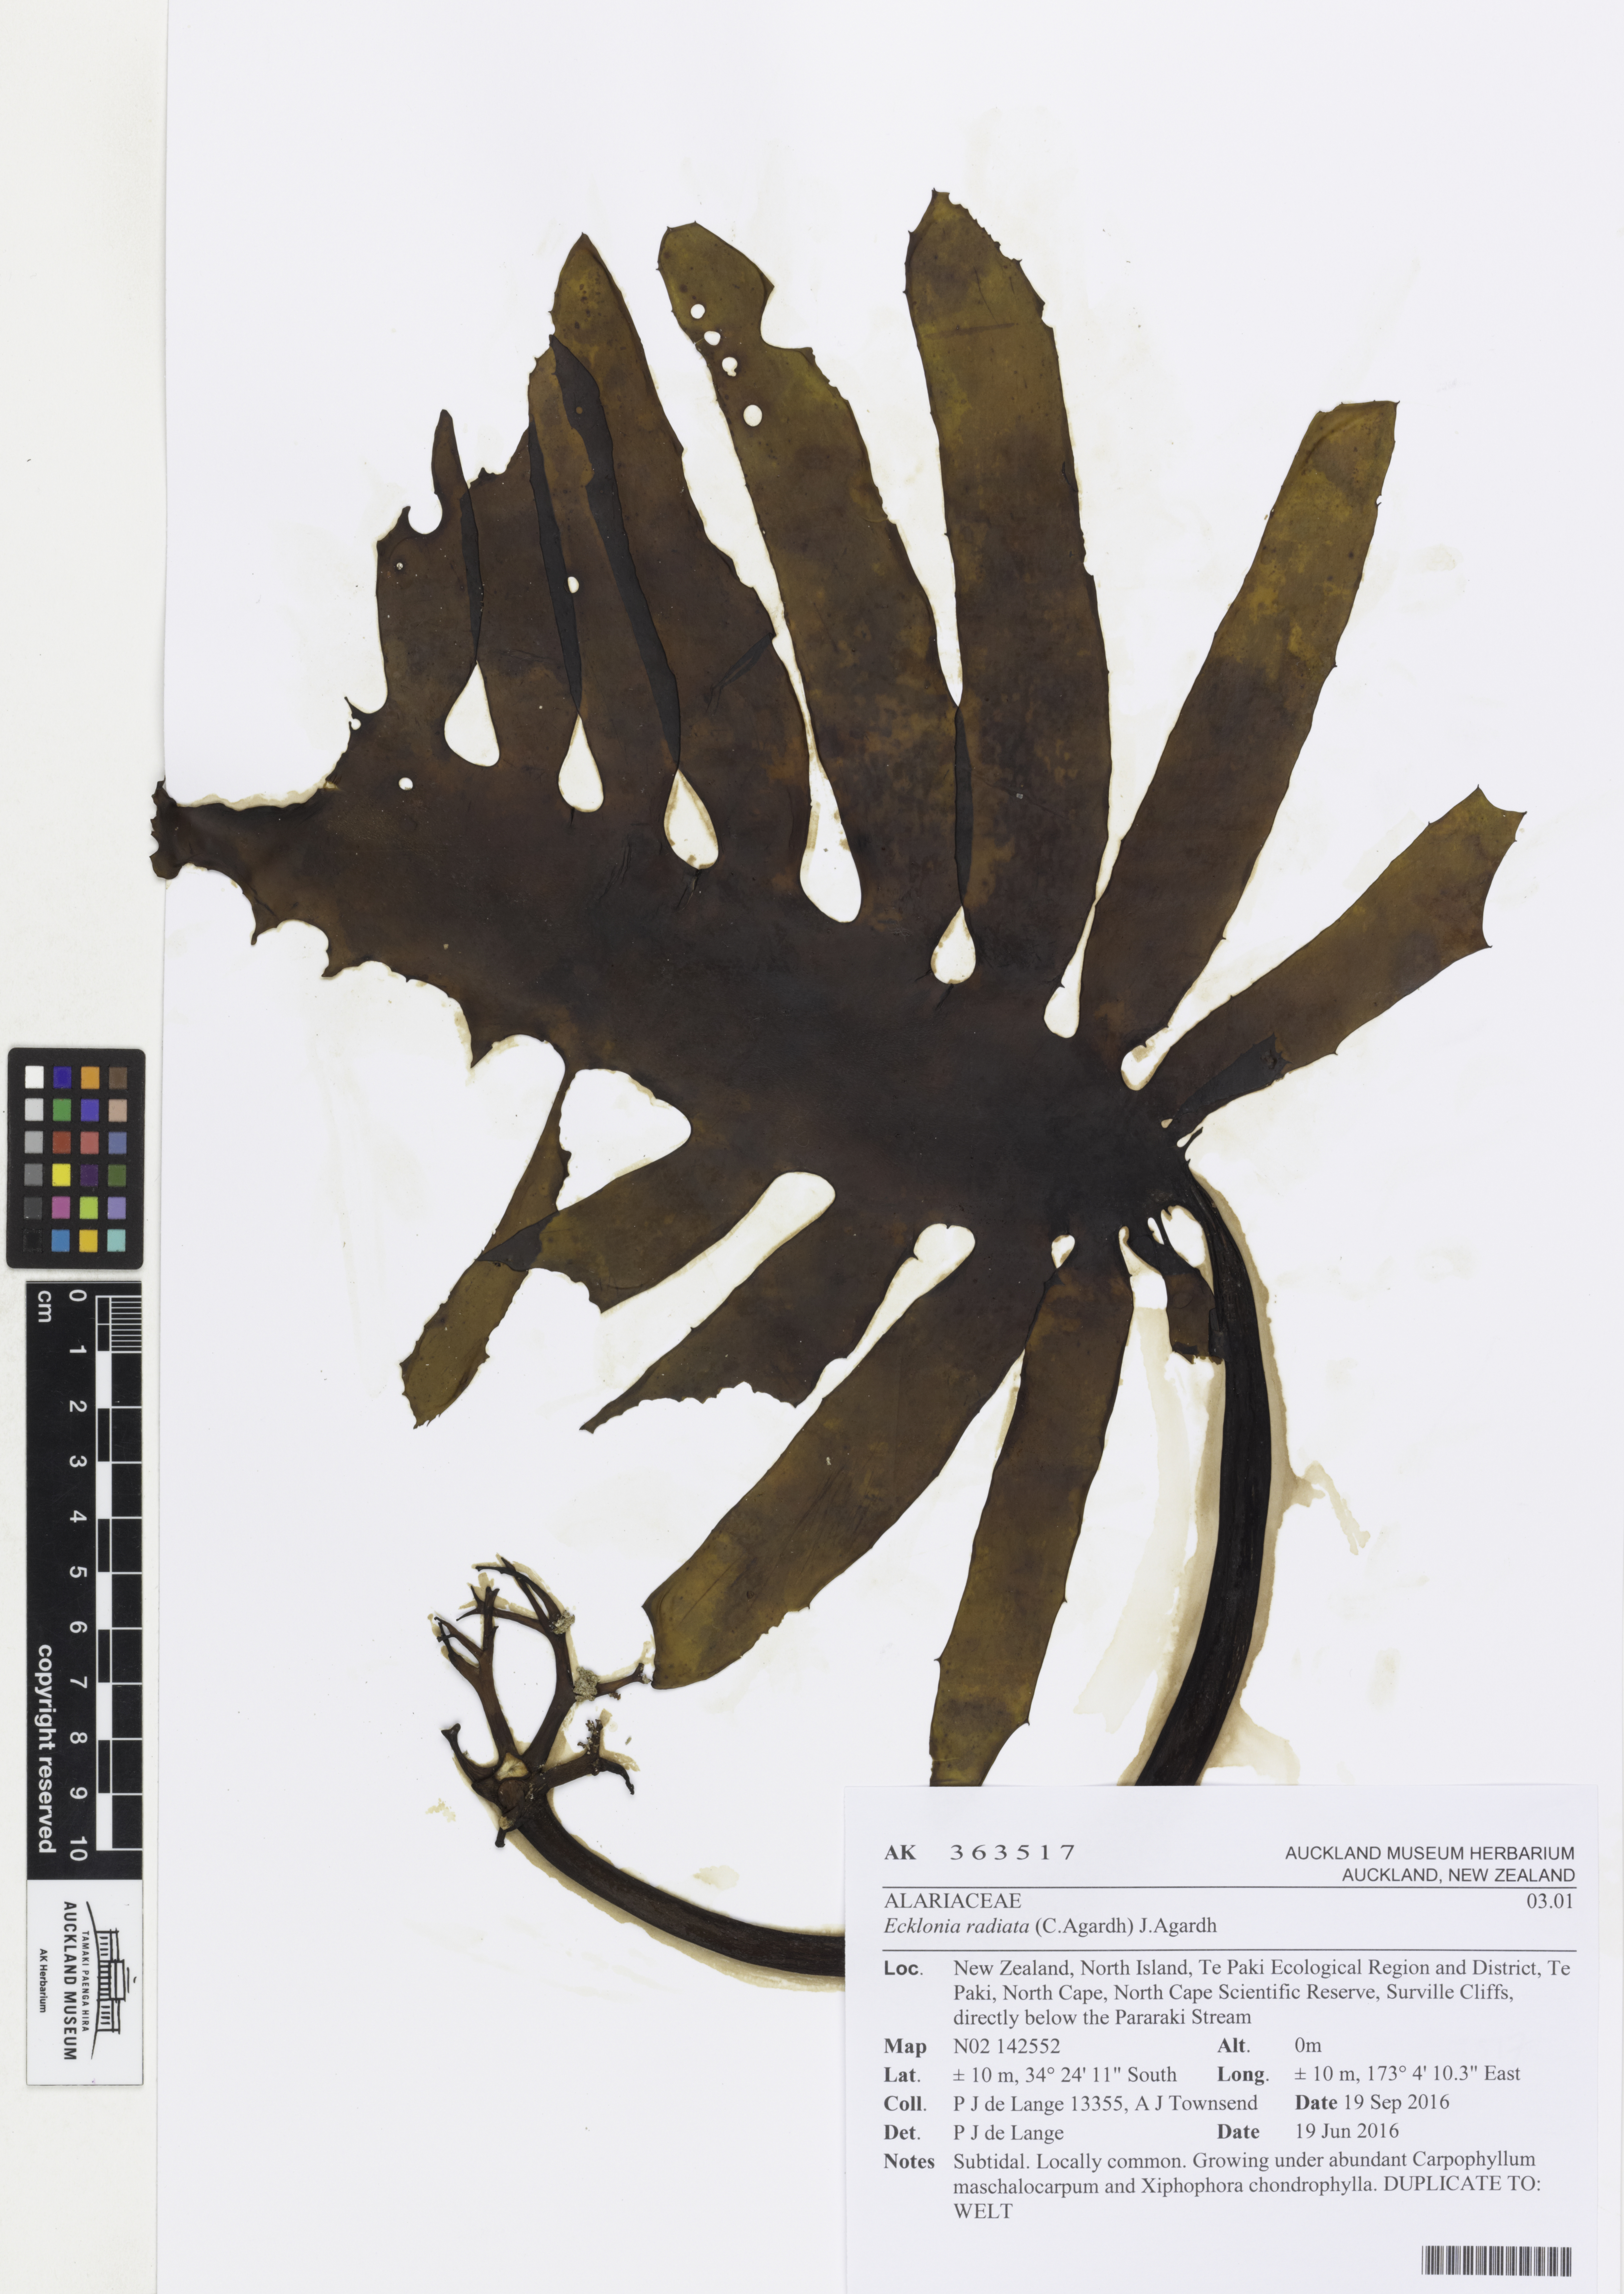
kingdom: Chromista
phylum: Ochrophyta
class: Phaeophyceae
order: Laminariales
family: Lessoniaceae
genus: Ecklonia
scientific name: Ecklonia radiata
